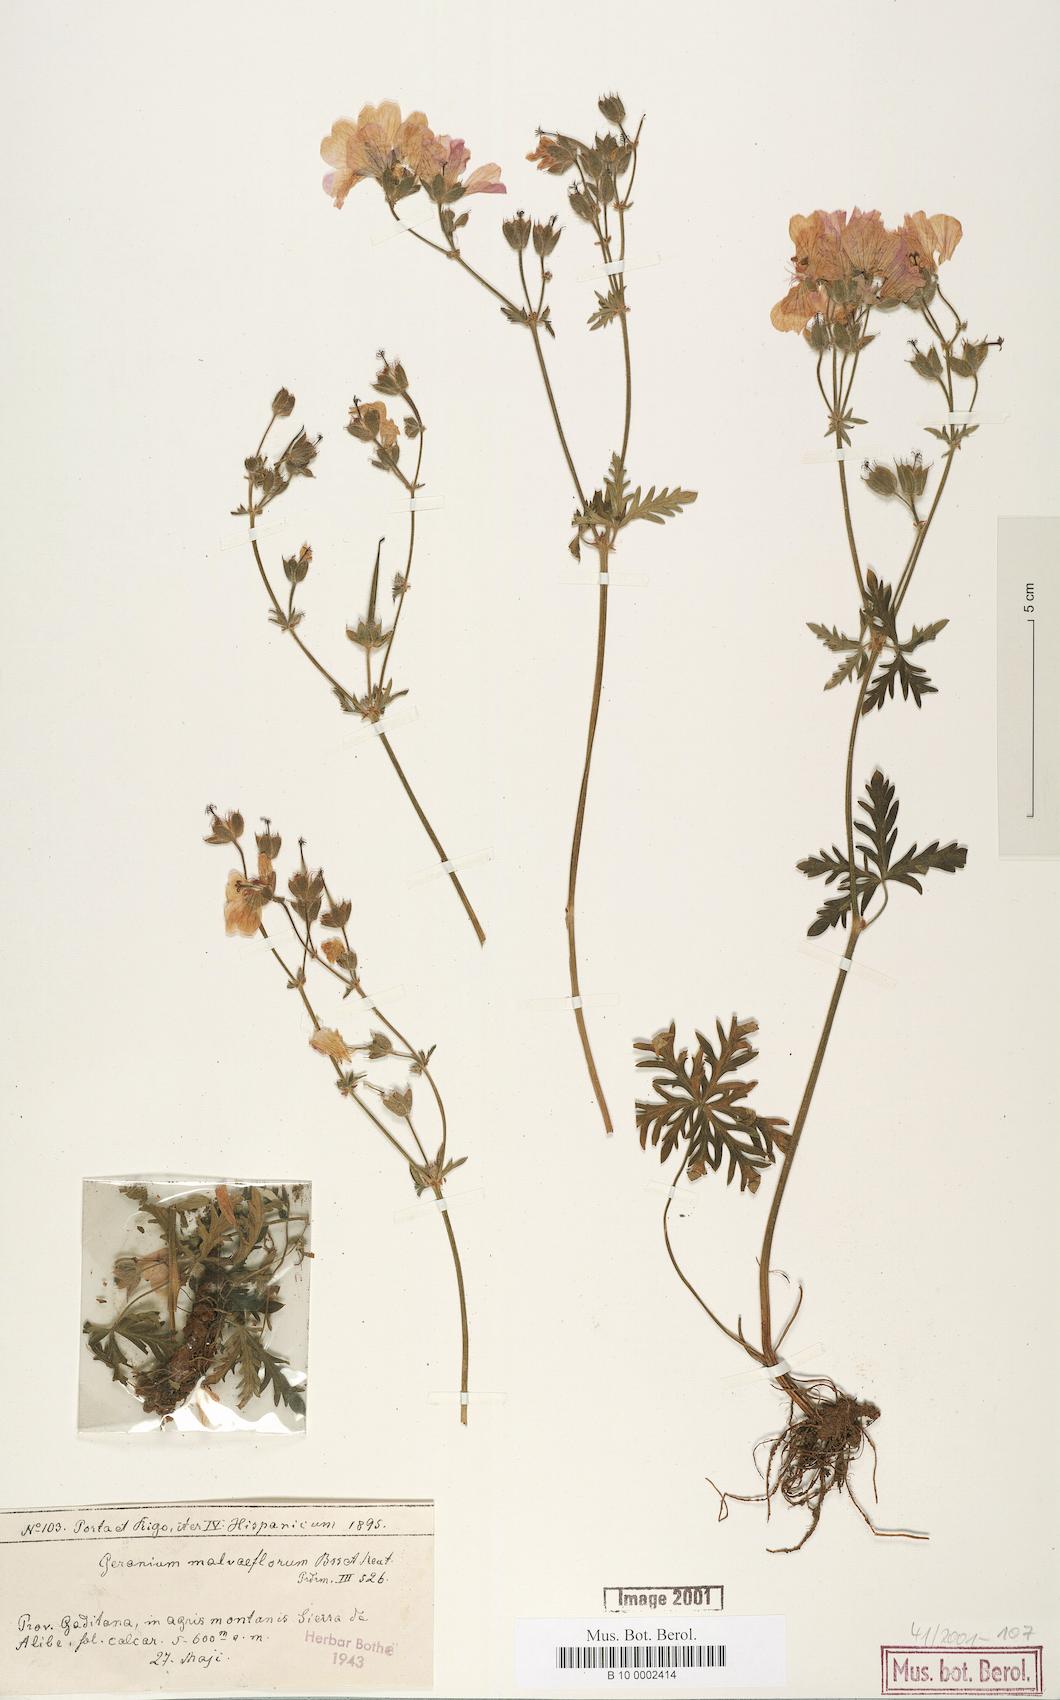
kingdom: Plantae
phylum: Tracheophyta
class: Magnoliopsida
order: Geraniales
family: Geraniaceae
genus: Geranium
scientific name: Geranium malviflorum
